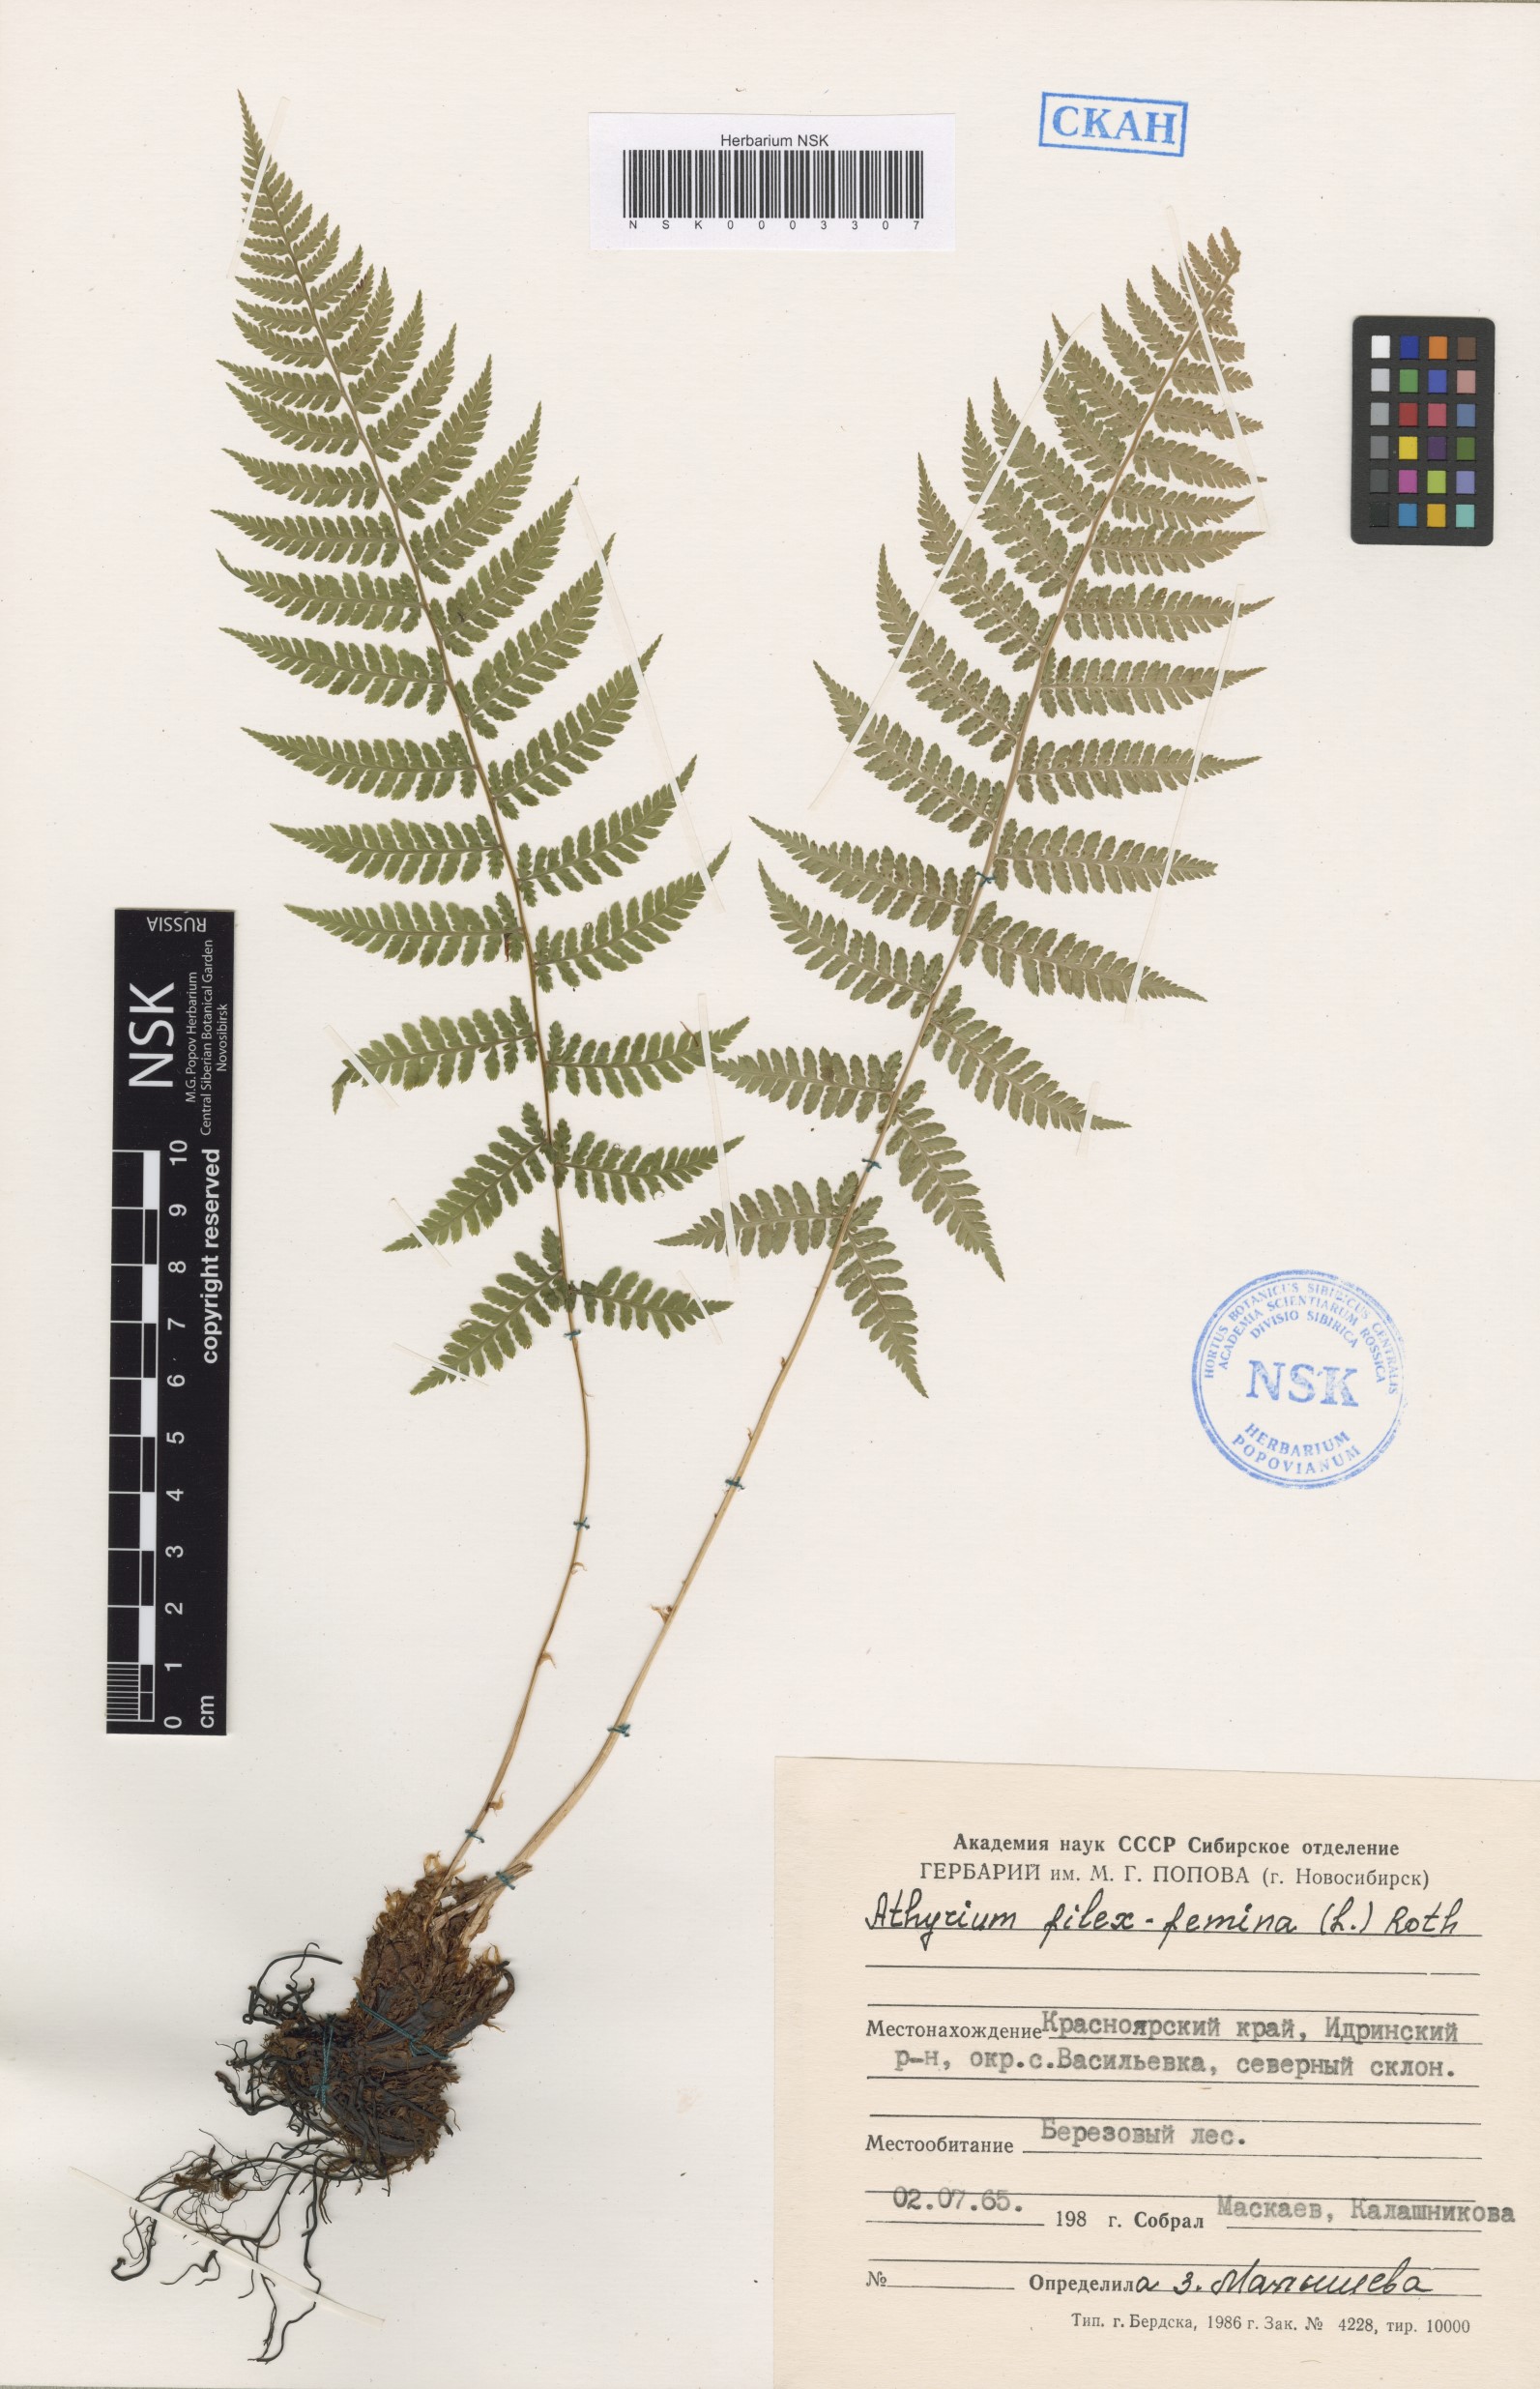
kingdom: Plantae
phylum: Tracheophyta
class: Polypodiopsida
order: Polypodiales
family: Athyriaceae
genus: Athyrium
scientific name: Athyrium filix-femina
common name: Lady fern
